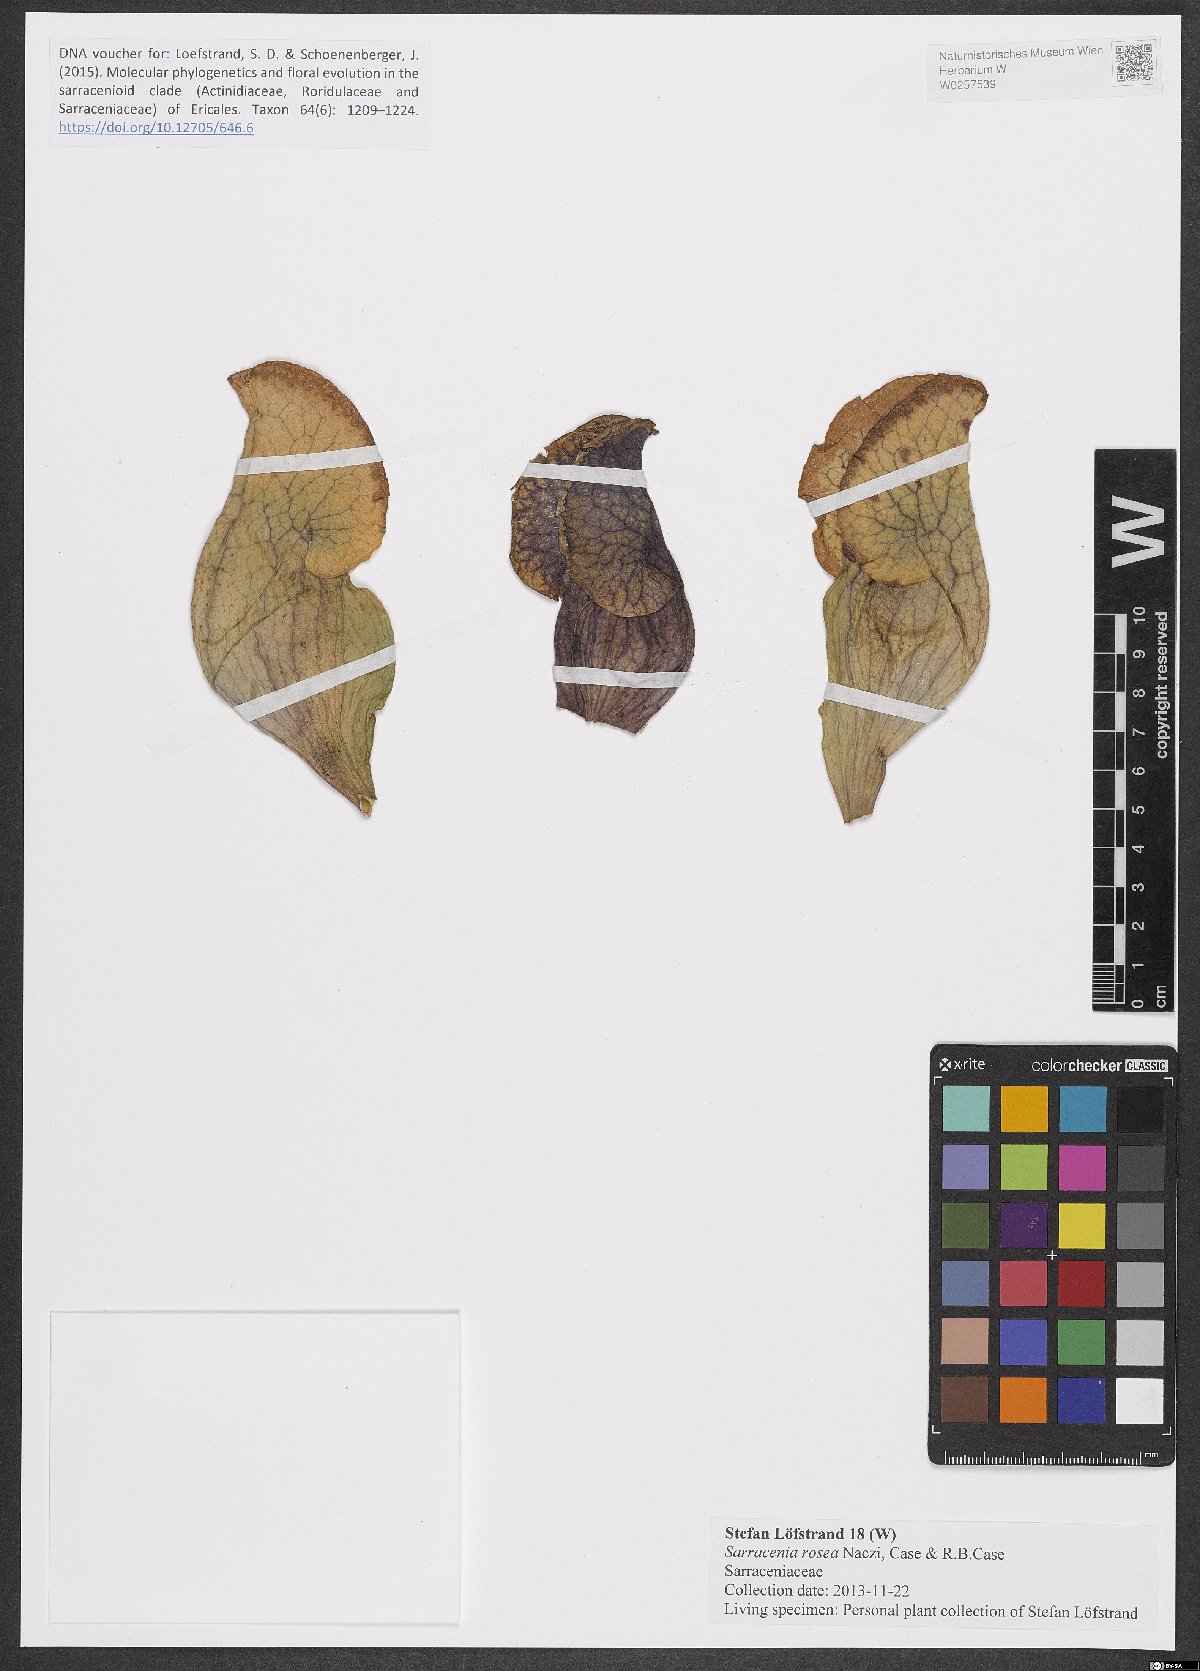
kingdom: Plantae
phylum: Tracheophyta
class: Magnoliopsida
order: Ericales
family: Sarraceniaceae
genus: Sarracenia
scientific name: Sarracenia rosea
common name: Pink pitcherplant
